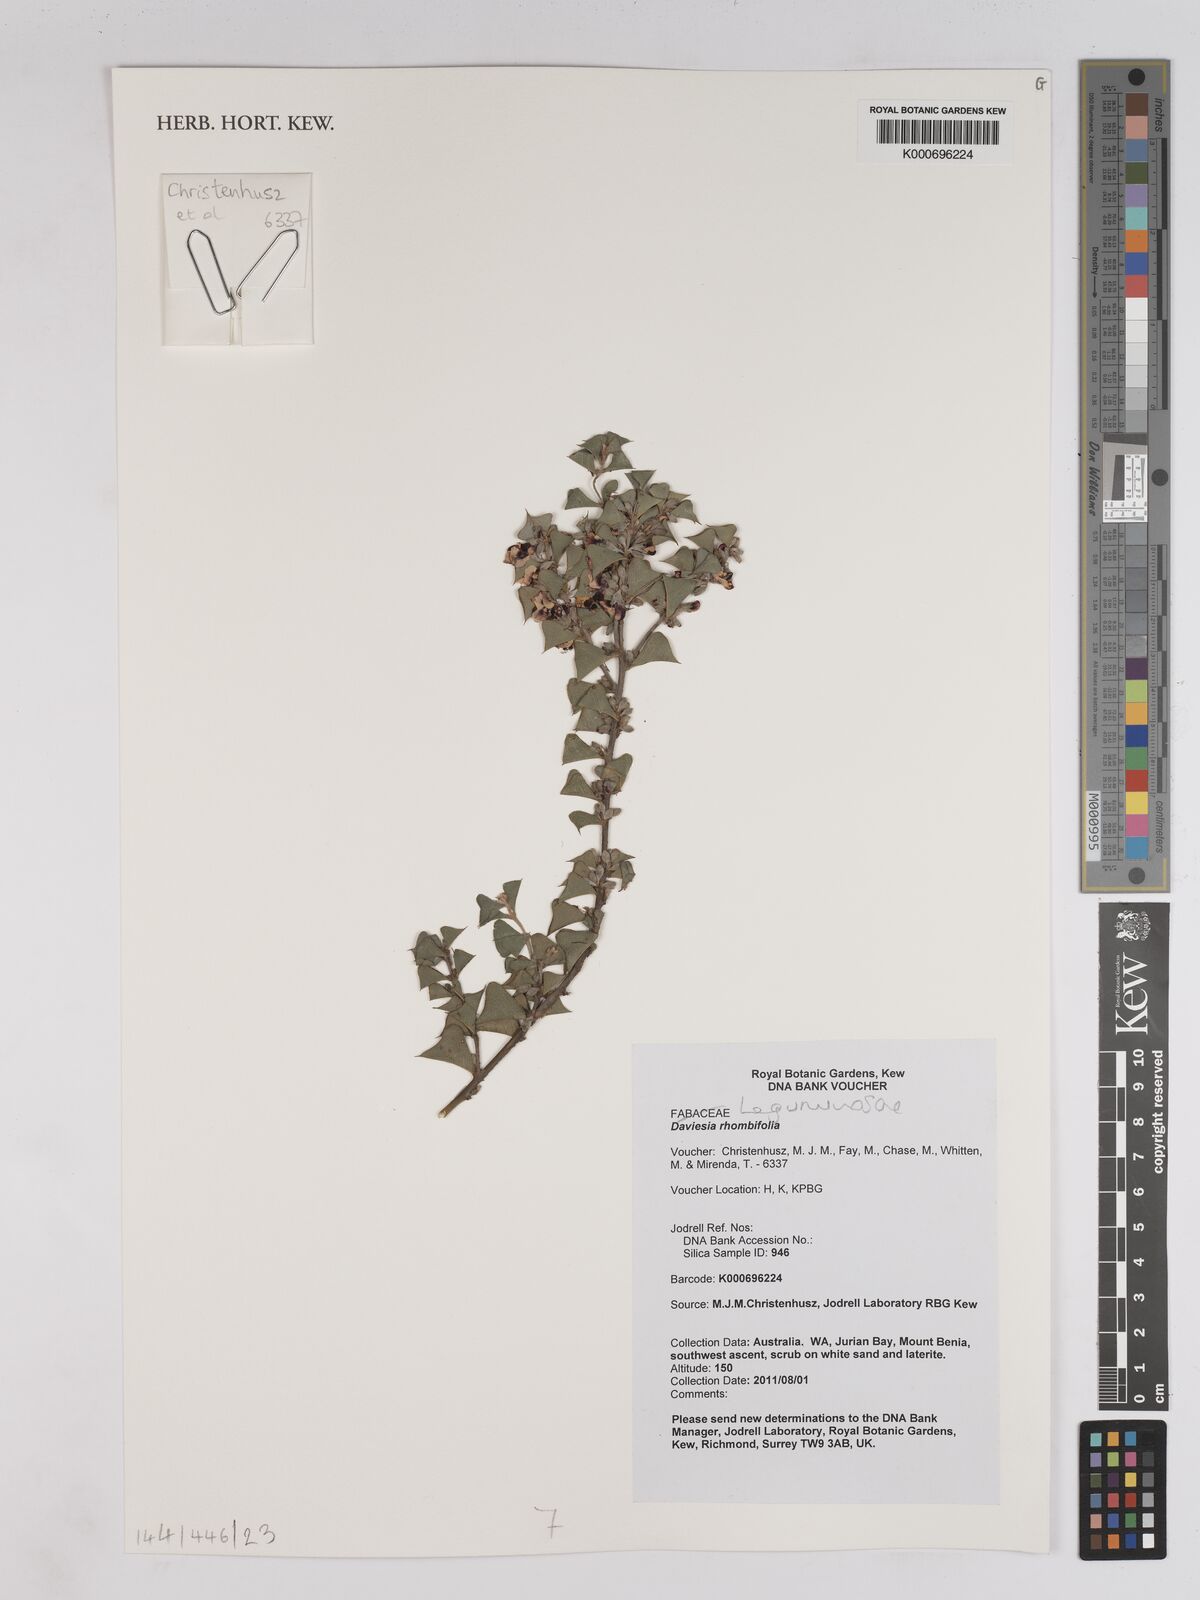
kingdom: Plantae
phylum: Tracheophyta
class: Magnoliopsida
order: Fabales
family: Fabaceae
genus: Daviesia
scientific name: Daviesia rhombifolia
